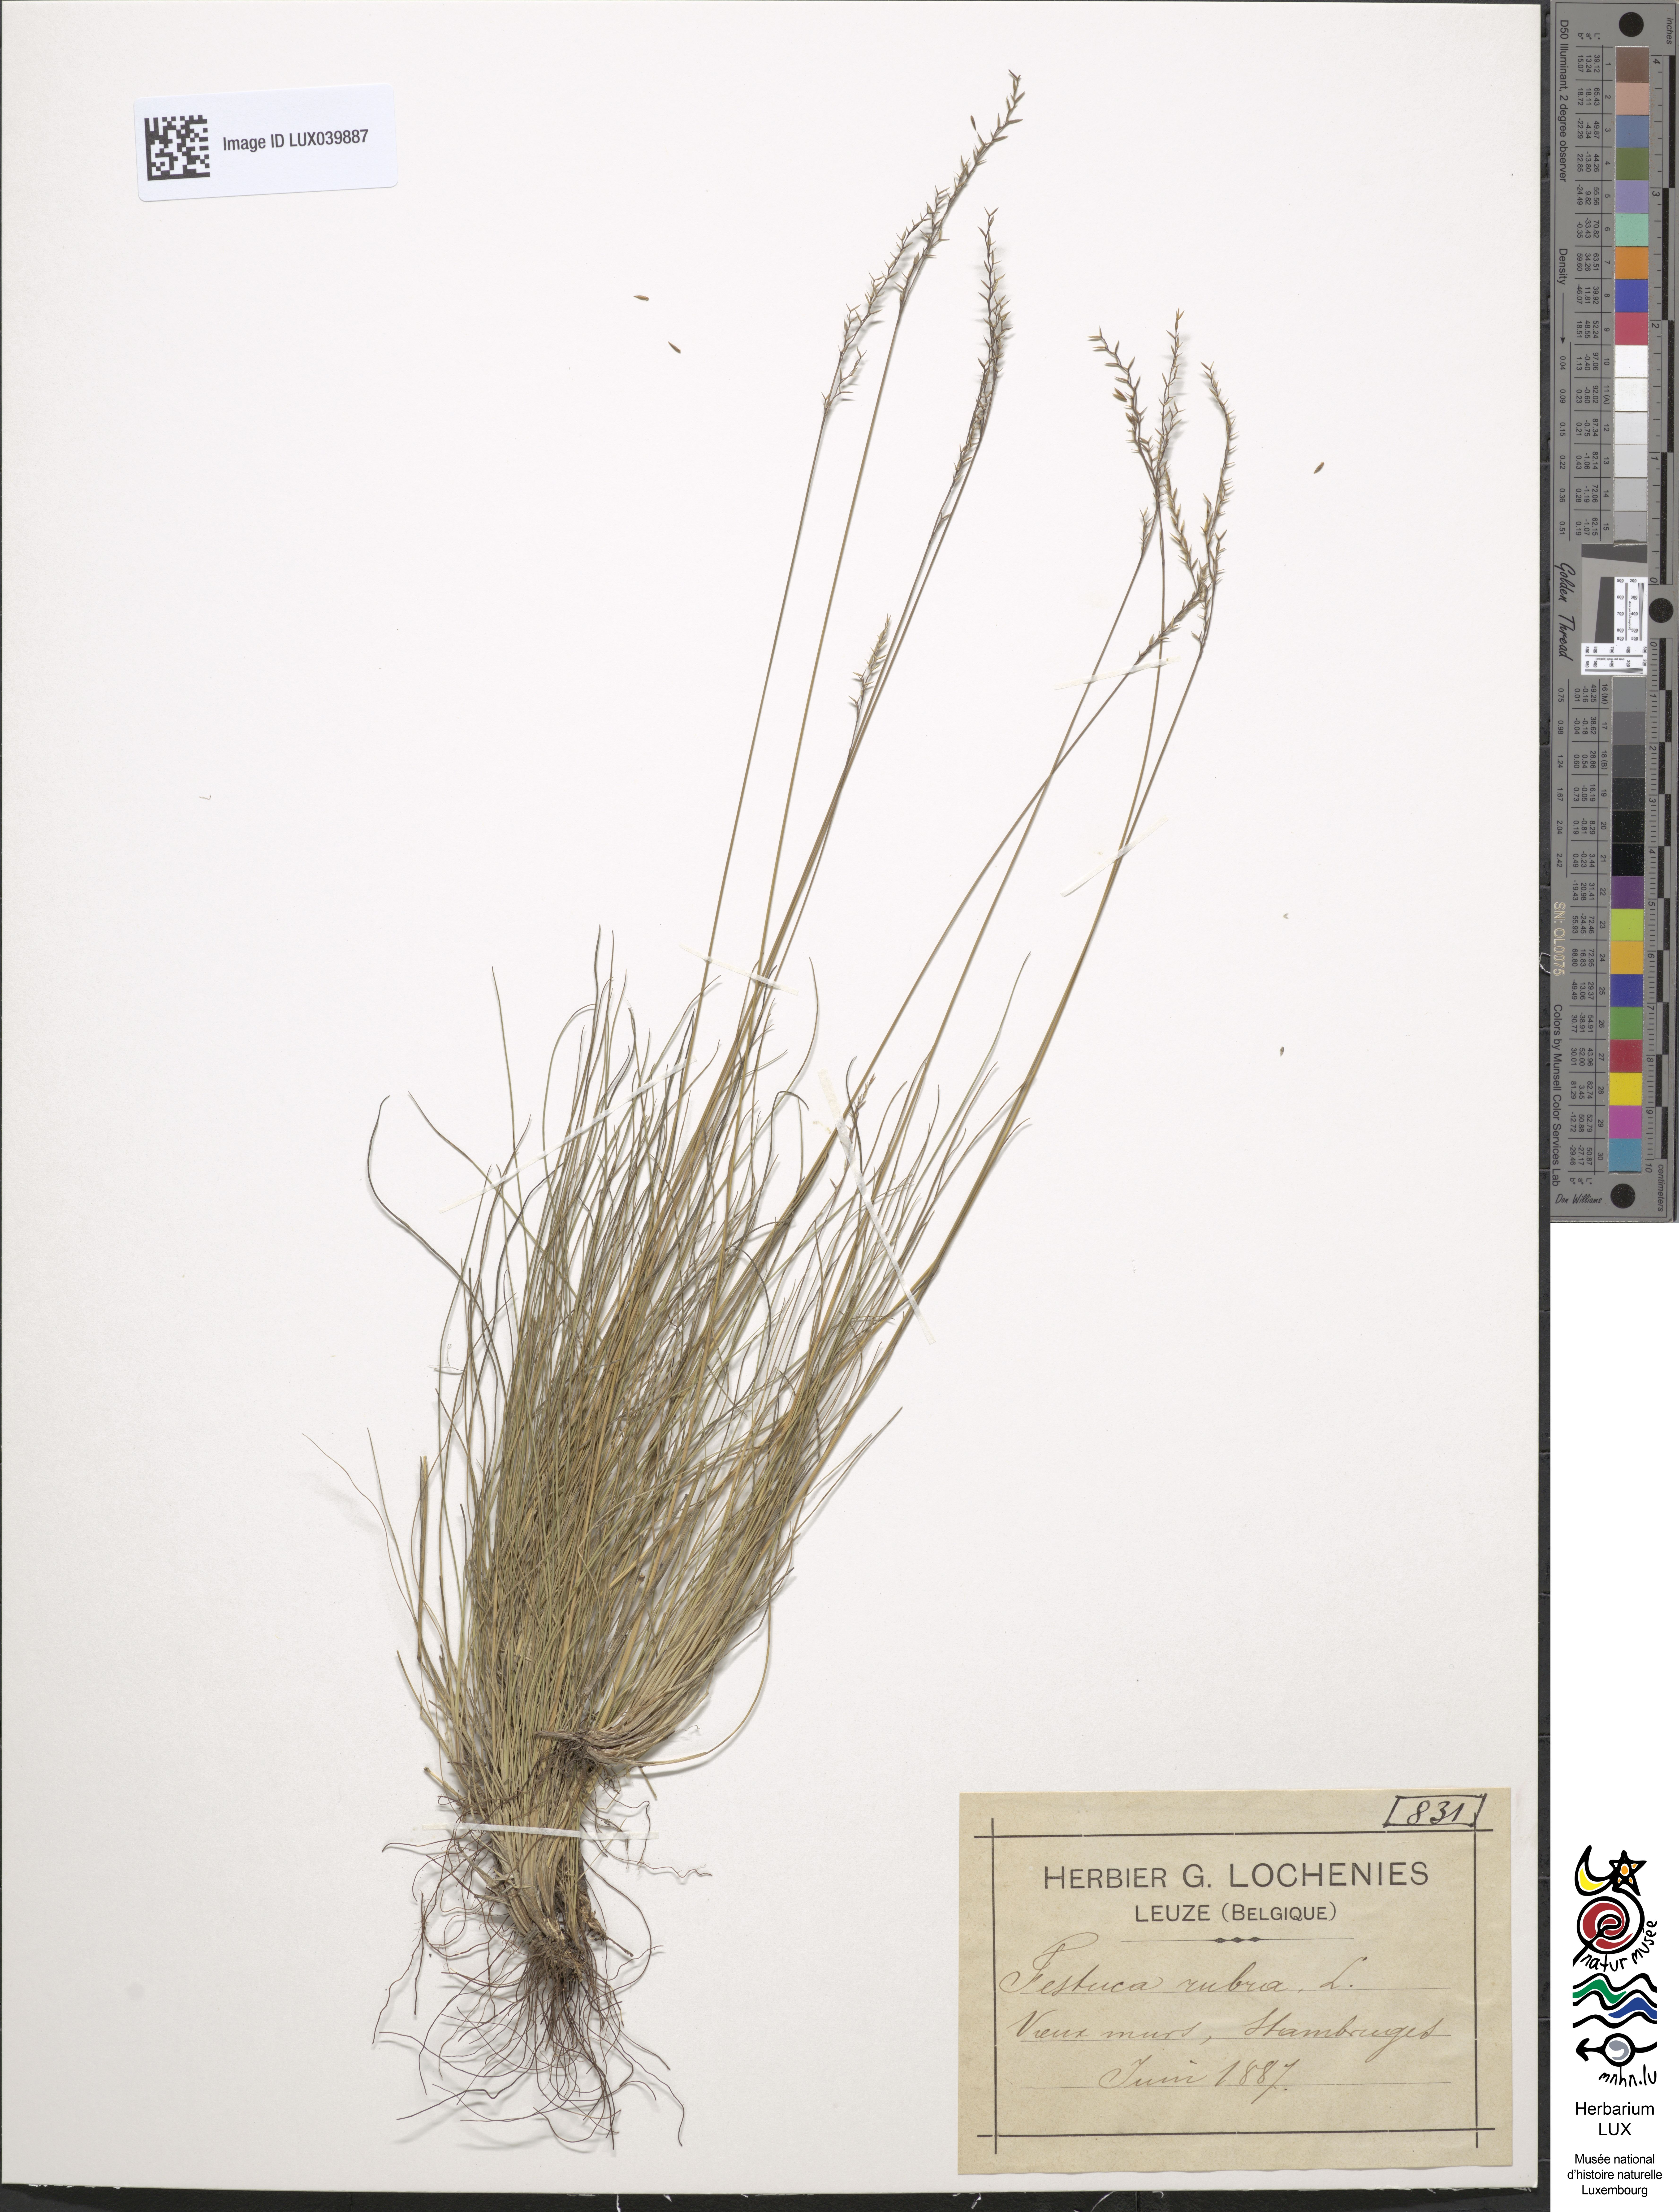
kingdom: Plantae
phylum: Tracheophyta
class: Liliopsida
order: Poales
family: Poaceae
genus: Festuca
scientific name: Festuca rubra
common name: Red fescue
